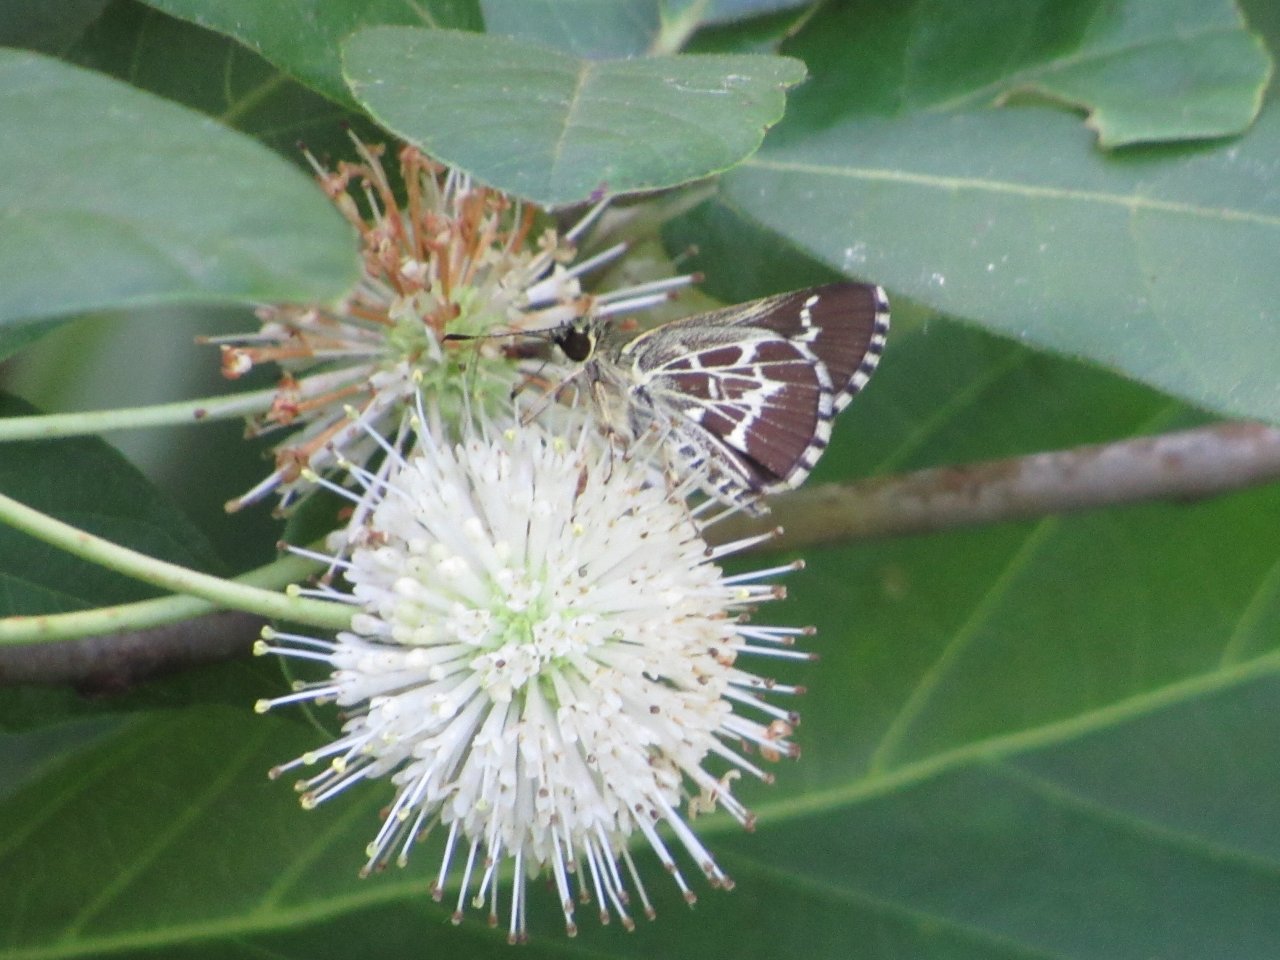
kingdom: Animalia
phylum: Arthropoda
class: Insecta
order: Lepidoptera
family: Hesperiidae
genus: Mastor
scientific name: Mastor aesculapius
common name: Lace-winged Roadside-Skipper
